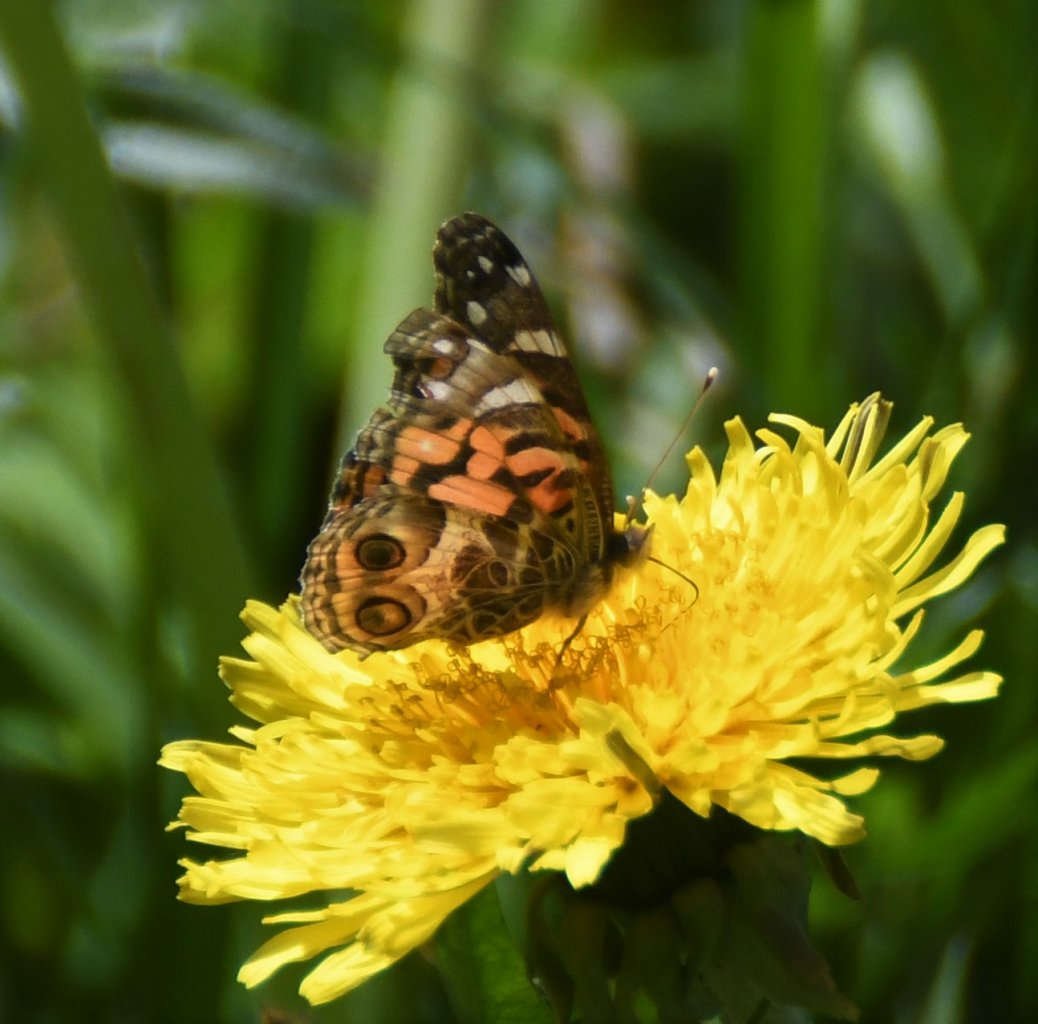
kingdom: Animalia
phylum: Arthropoda
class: Insecta
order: Lepidoptera
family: Nymphalidae
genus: Vanessa
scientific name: Vanessa virginiensis
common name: American Lady
